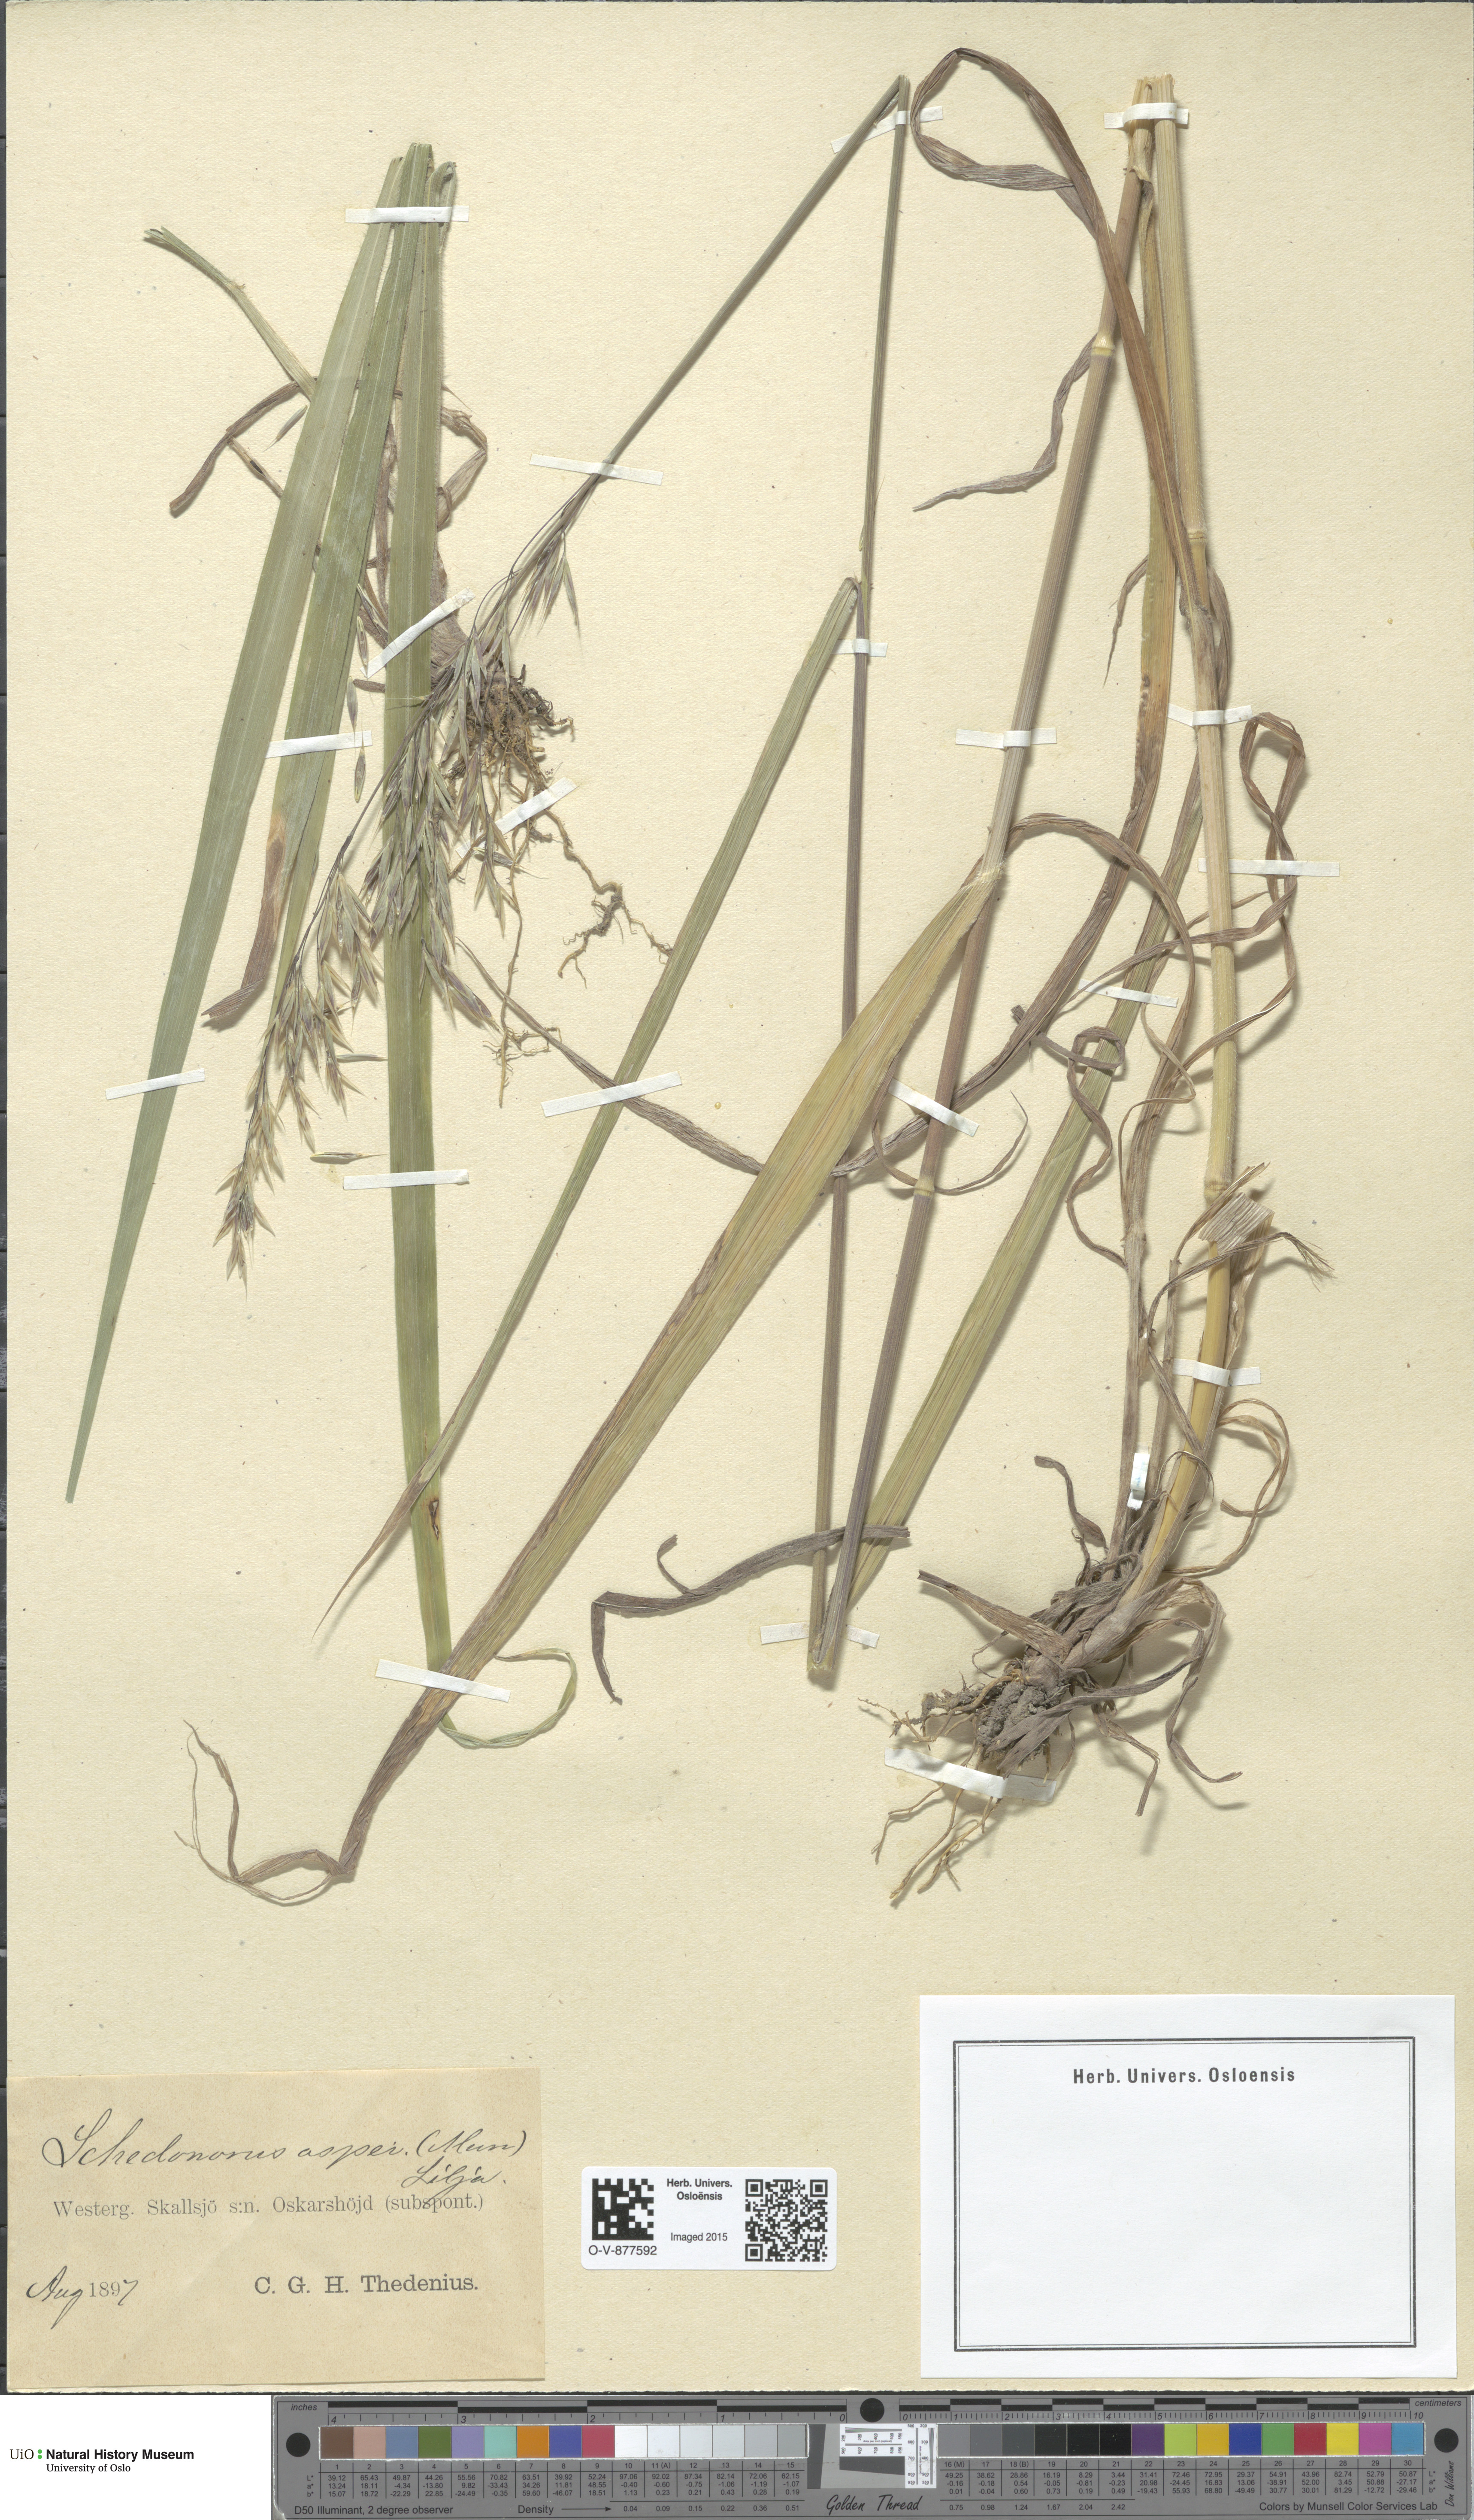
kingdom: Plantae
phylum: Tracheophyta
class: Liliopsida
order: Poales
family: Poaceae
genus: Bromus
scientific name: Bromus ramosus
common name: Hairy brome
